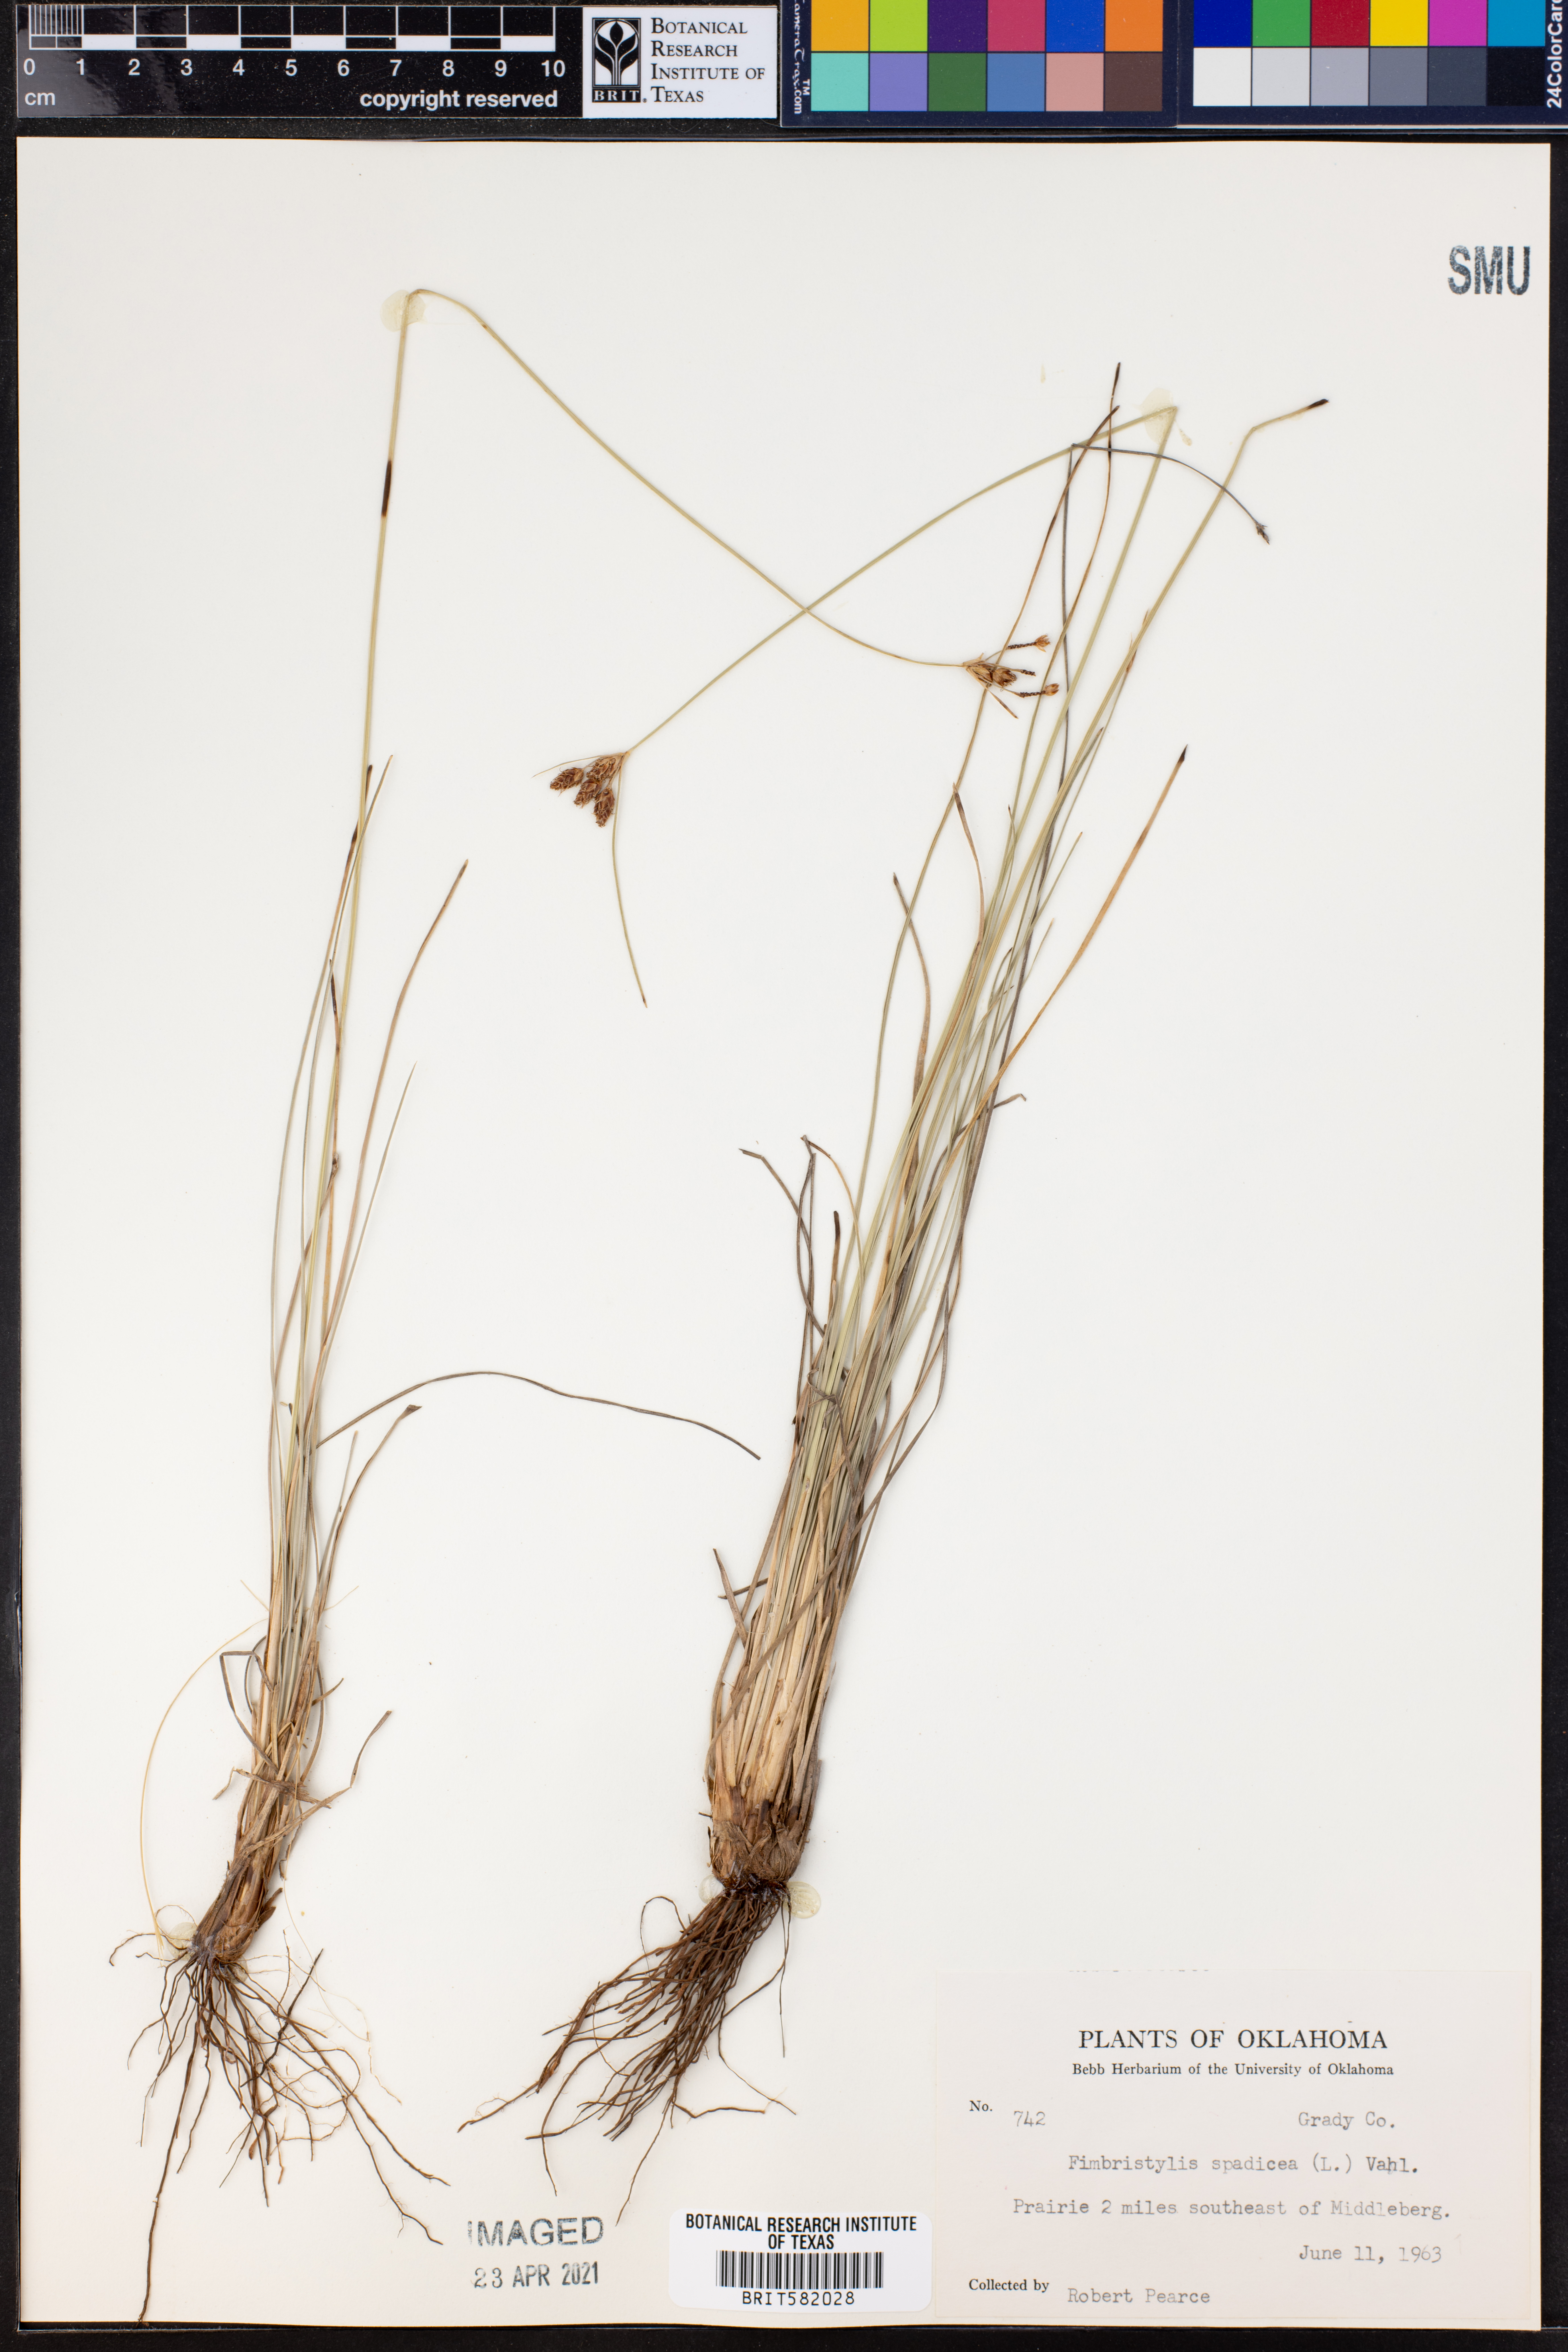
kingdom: Plantae
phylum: Tracheophyta
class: Liliopsida
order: Poales
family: Cyperaceae
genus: Fimbristylis
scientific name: Fimbristylis spadicea
